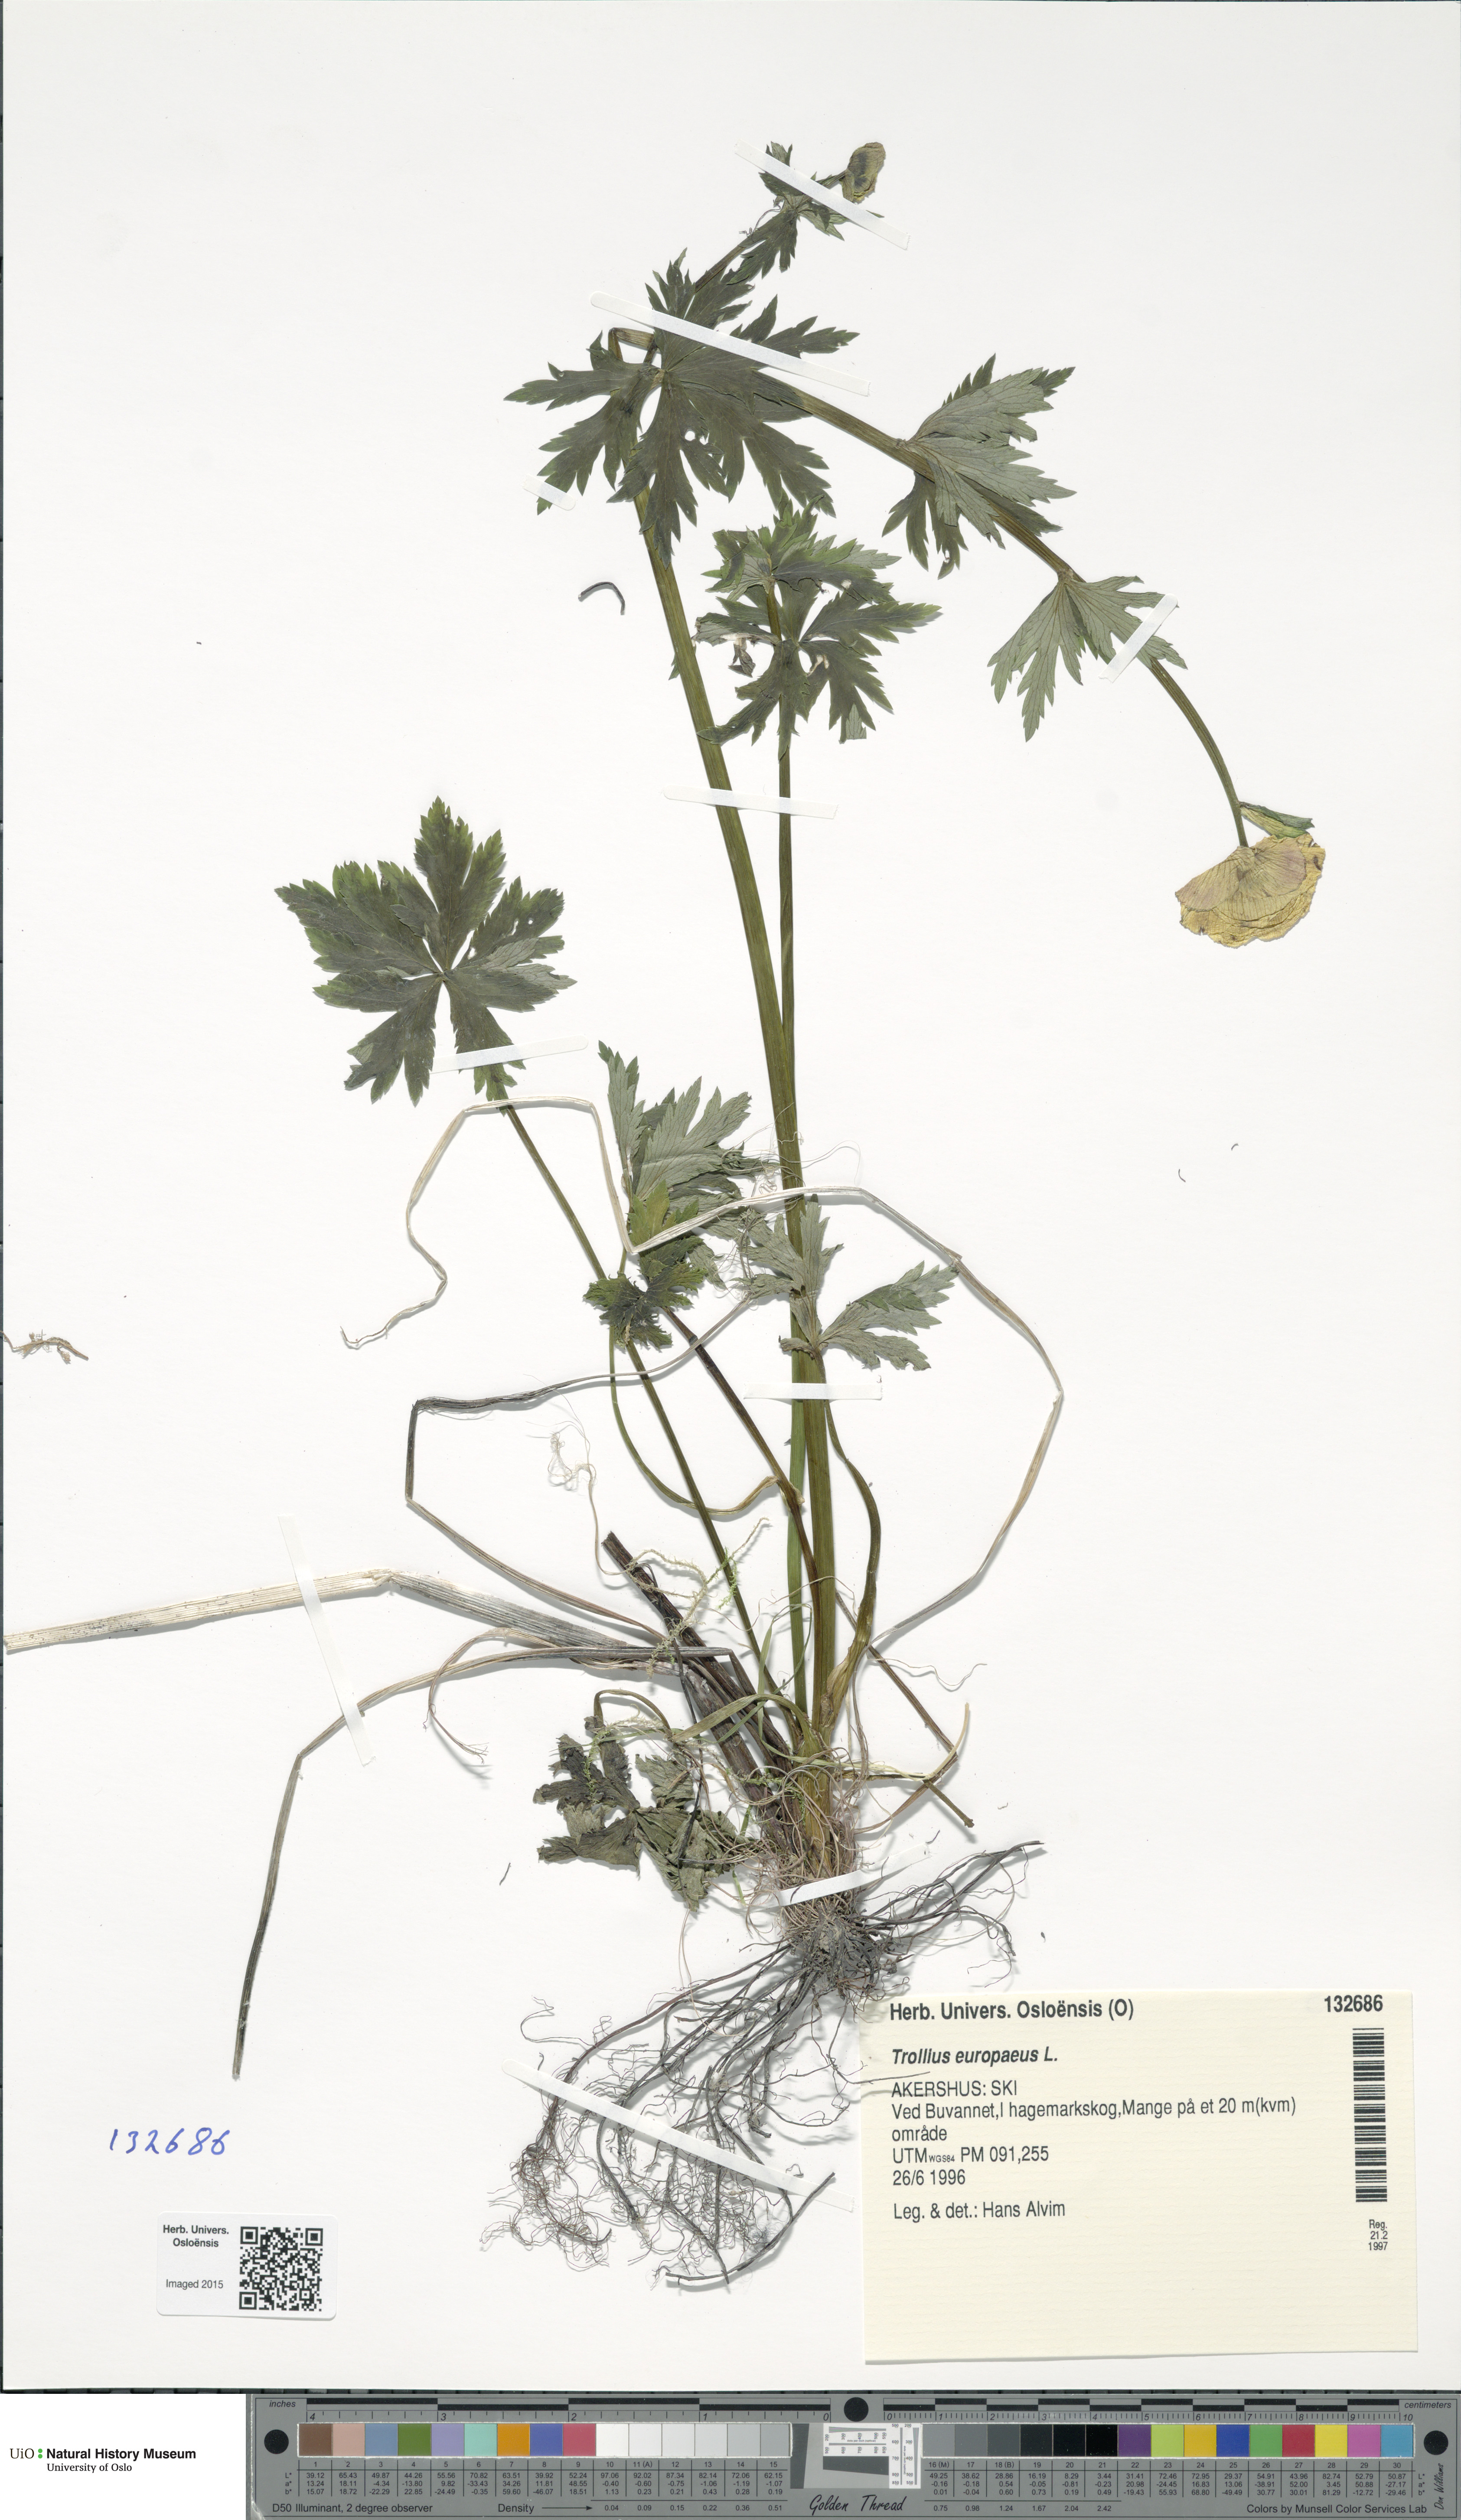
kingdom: Plantae
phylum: Tracheophyta
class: Magnoliopsida
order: Ranunculales
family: Ranunculaceae
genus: Trollius
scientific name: Trollius europaeus
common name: European globeflower
